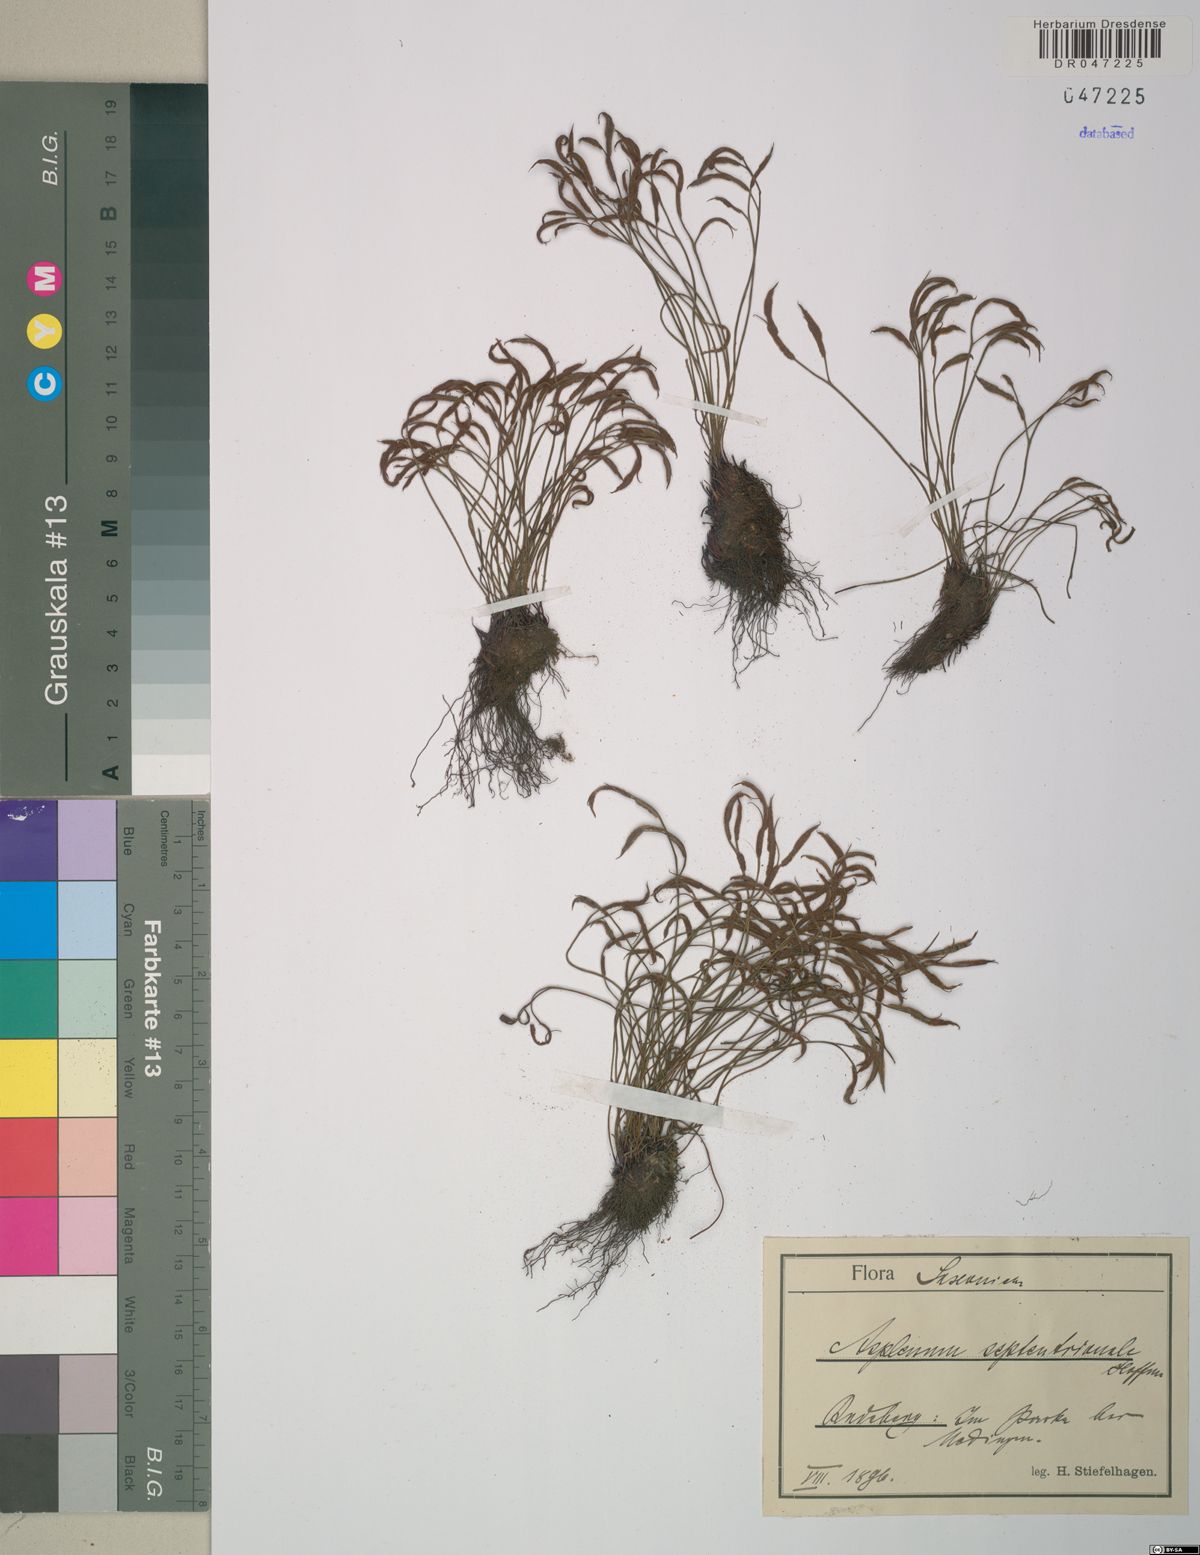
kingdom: Plantae
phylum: Tracheophyta
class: Polypodiopsida
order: Polypodiales
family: Aspleniaceae
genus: Asplenium
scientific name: Asplenium septentrionale
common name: Forked spleenwort
